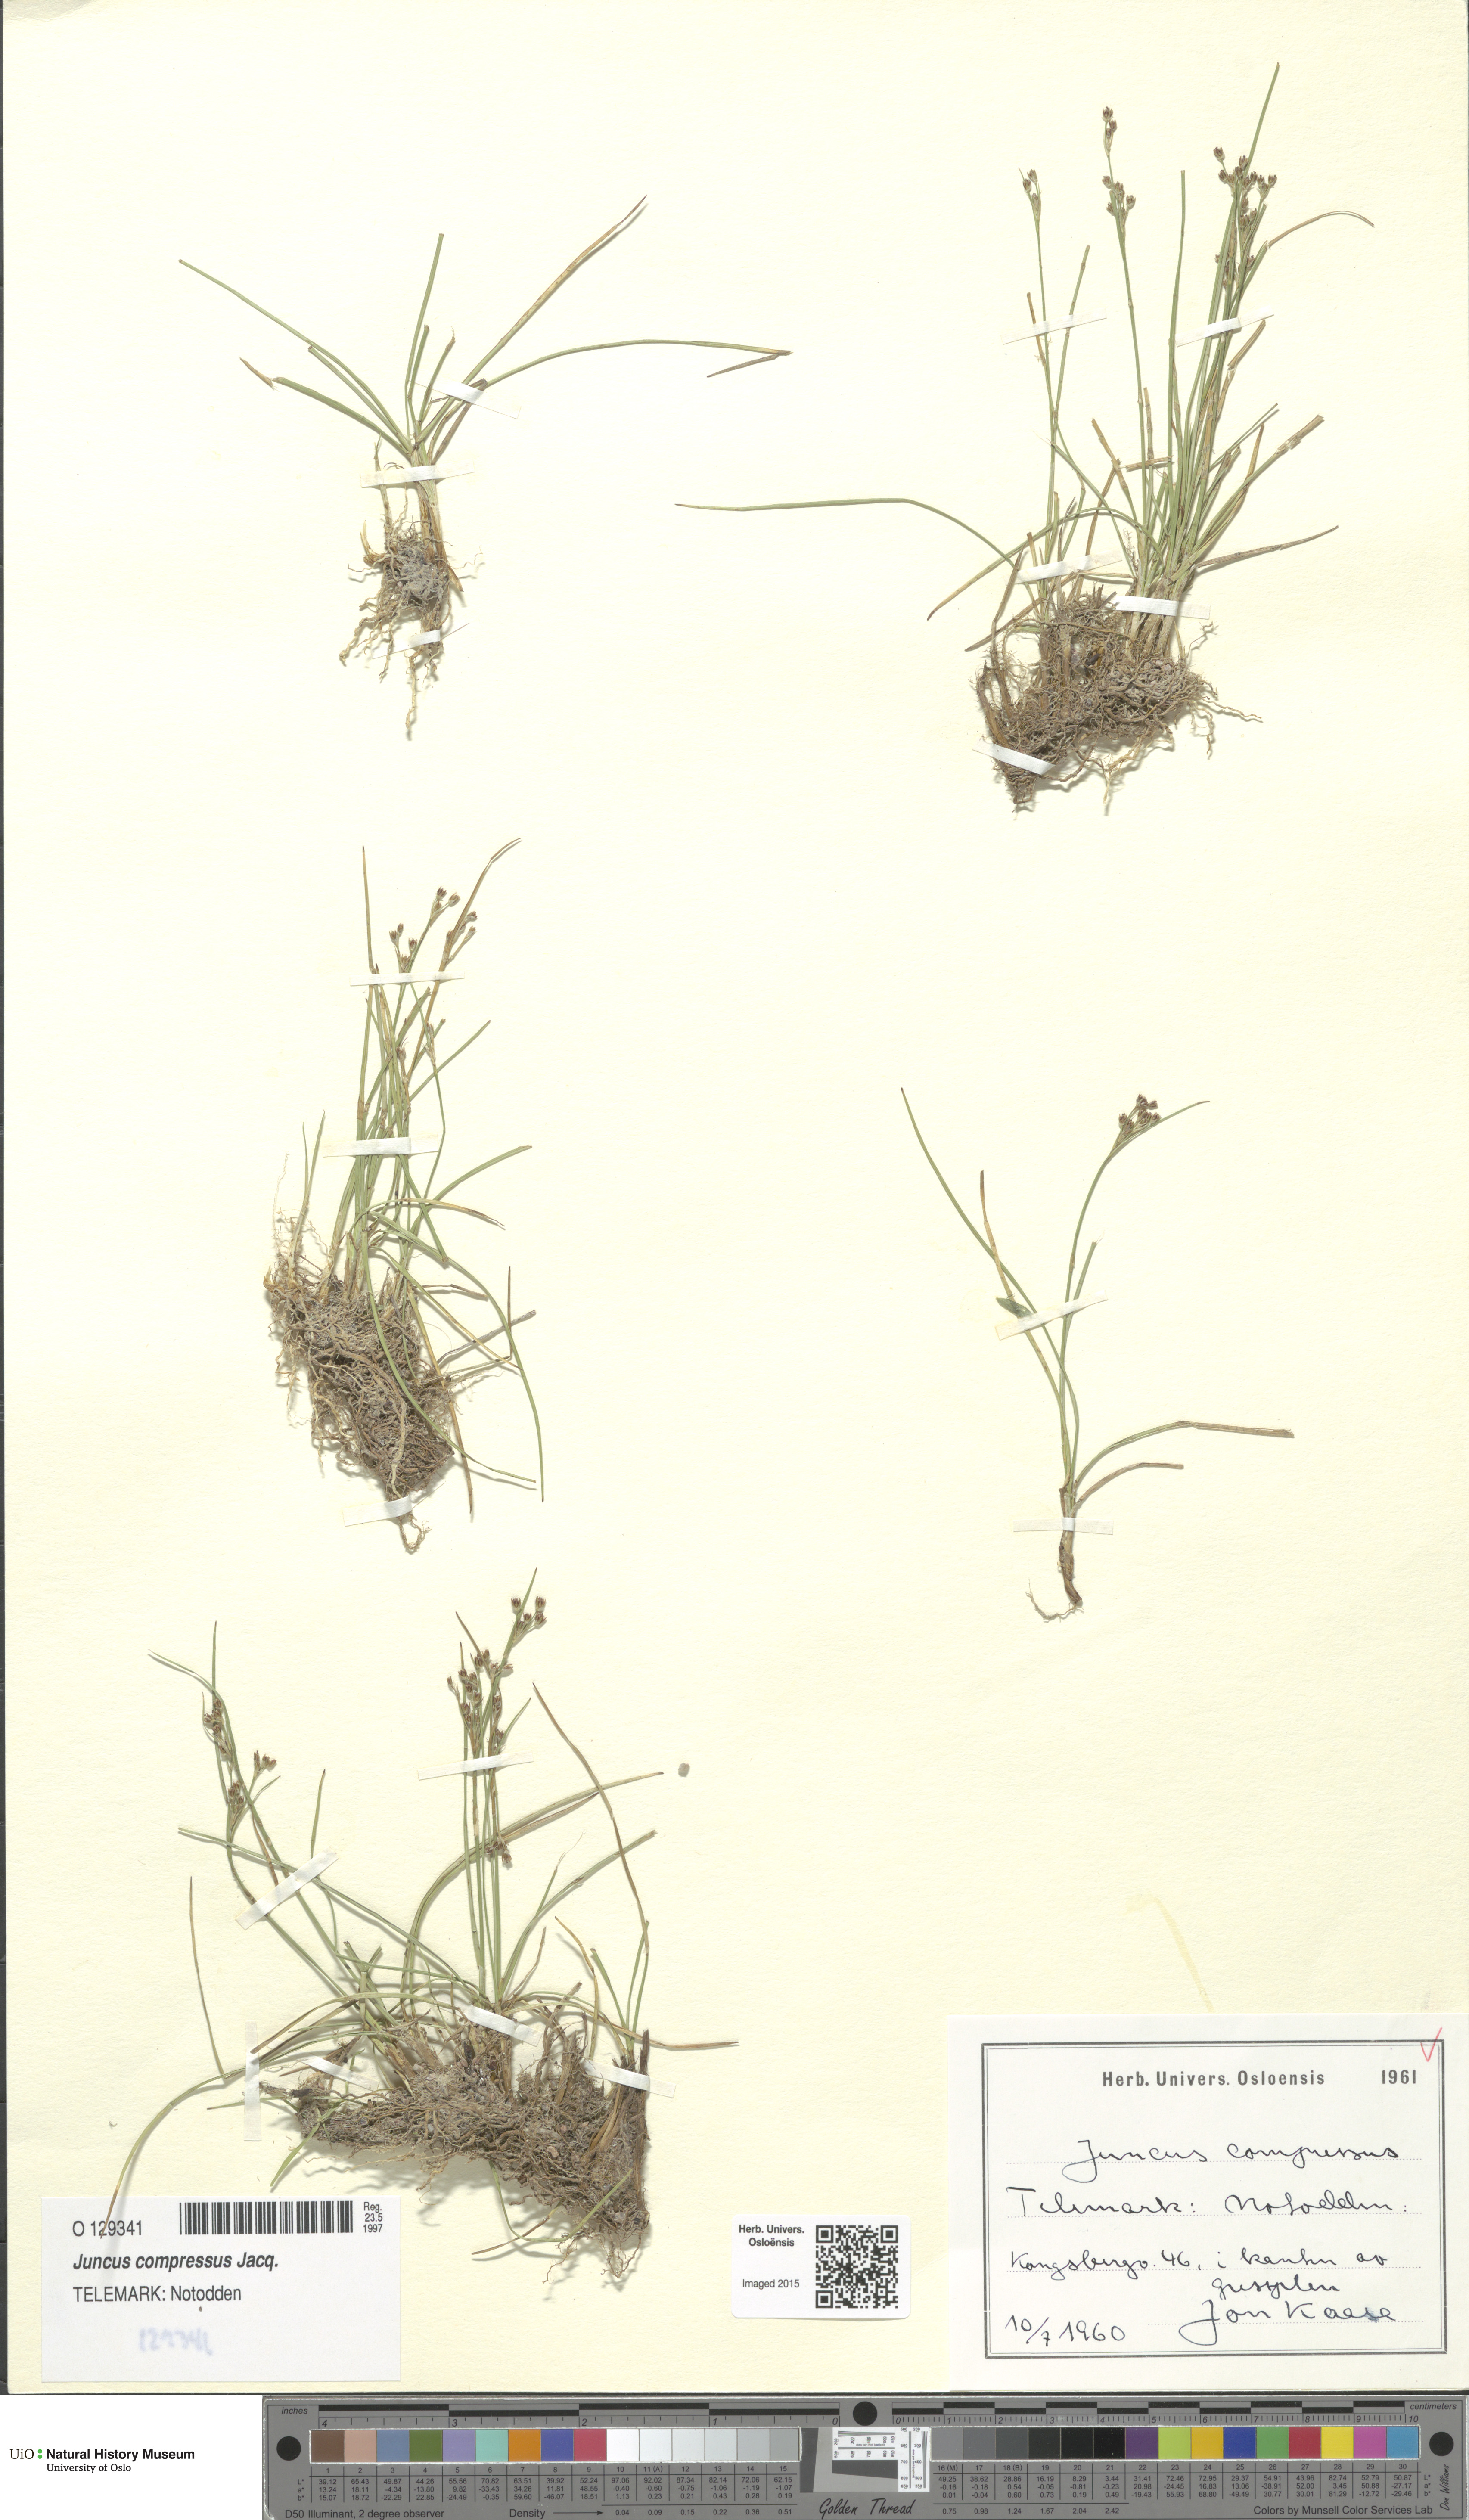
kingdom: Plantae
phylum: Tracheophyta
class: Liliopsida
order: Poales
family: Juncaceae
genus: Juncus
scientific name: Juncus compressus
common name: Round-fruited rush
